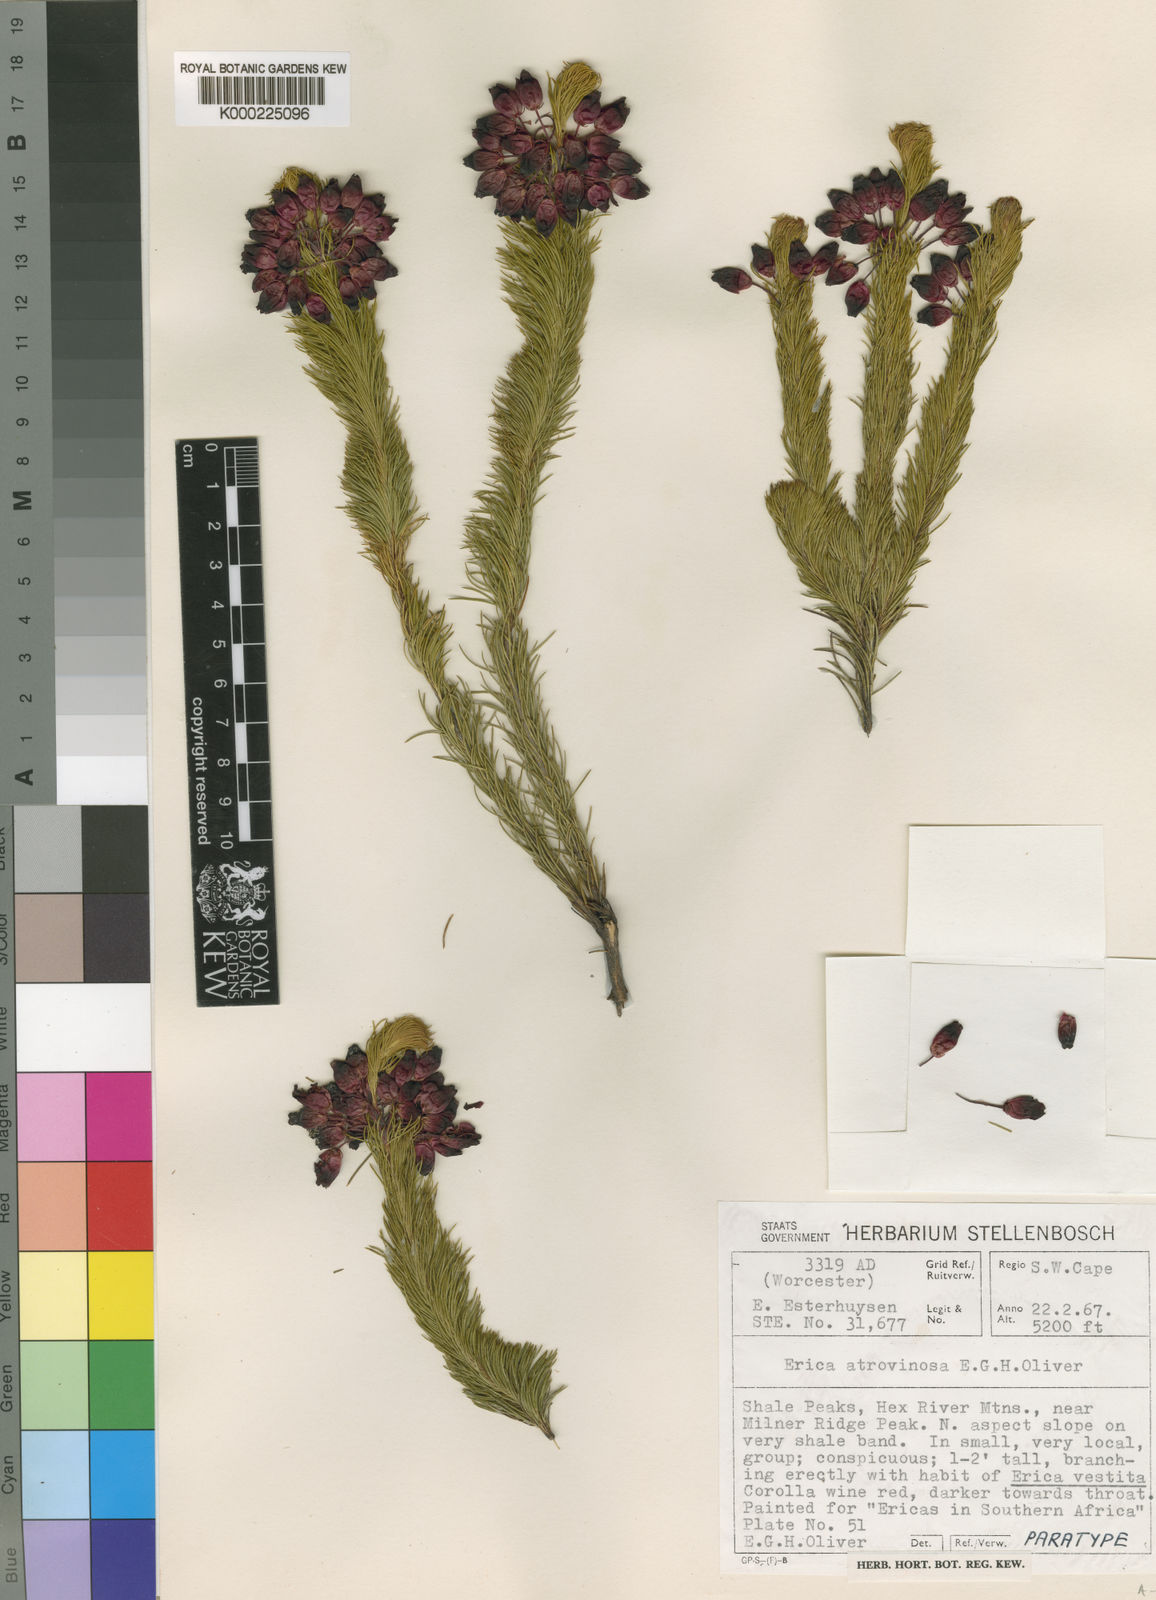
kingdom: Plantae
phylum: Tracheophyta
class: Magnoliopsida
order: Ericales
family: Ericaceae
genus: Erica
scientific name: Erica atrovinosa
